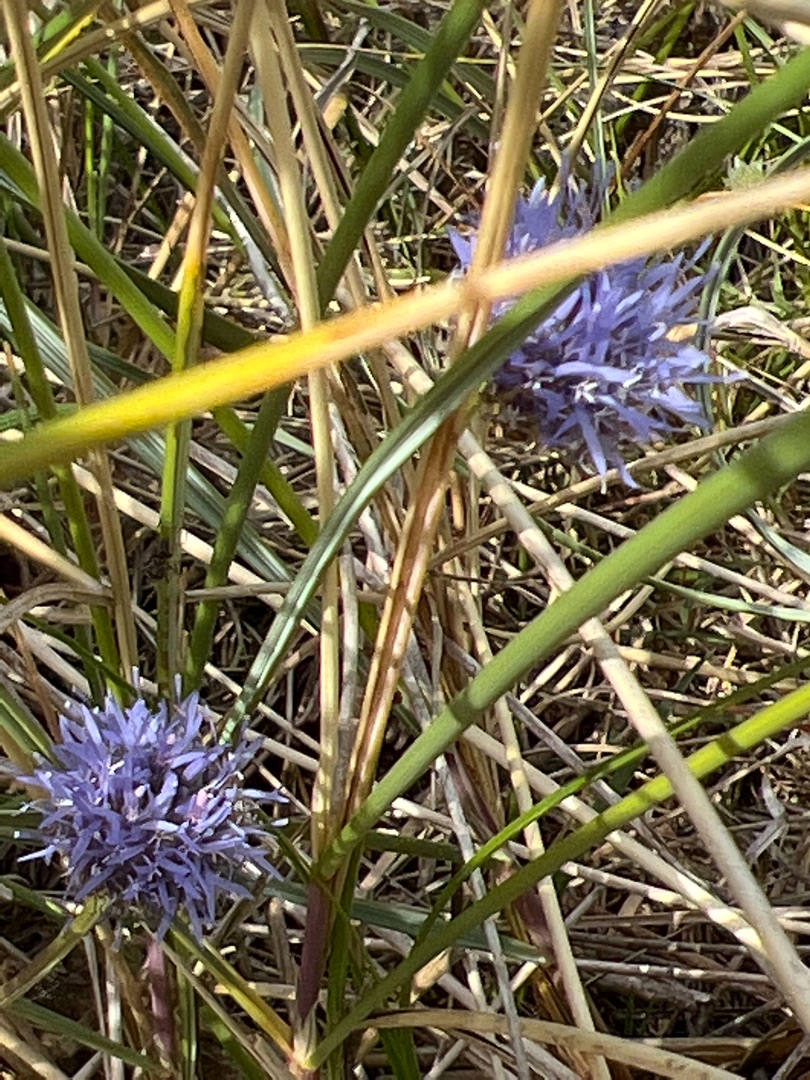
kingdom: Plantae
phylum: Tracheophyta
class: Magnoliopsida
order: Asterales
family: Campanulaceae
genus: Jasione
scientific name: Jasione montana
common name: Blåmunke
